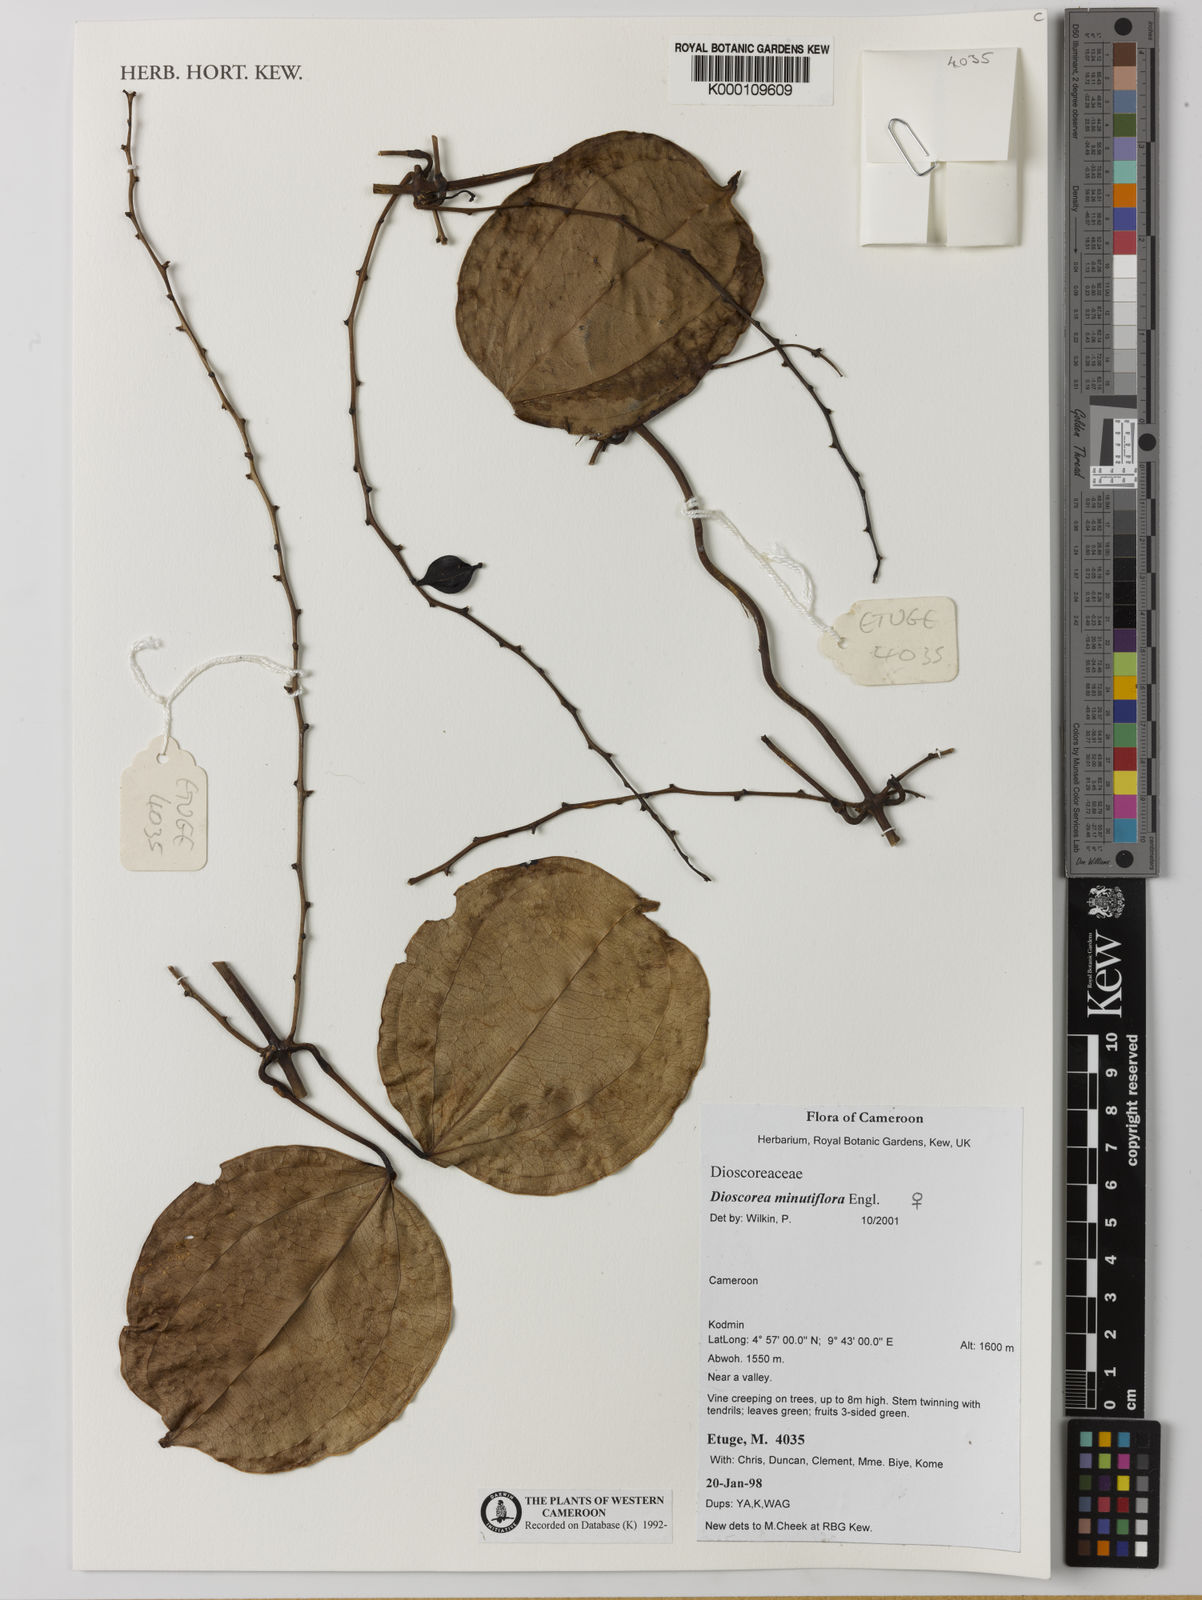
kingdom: Plantae
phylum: Tracheophyta
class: Liliopsida
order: Dioscoreales
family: Dioscoreaceae
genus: Dioscorea
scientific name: Dioscorea minutiflora
